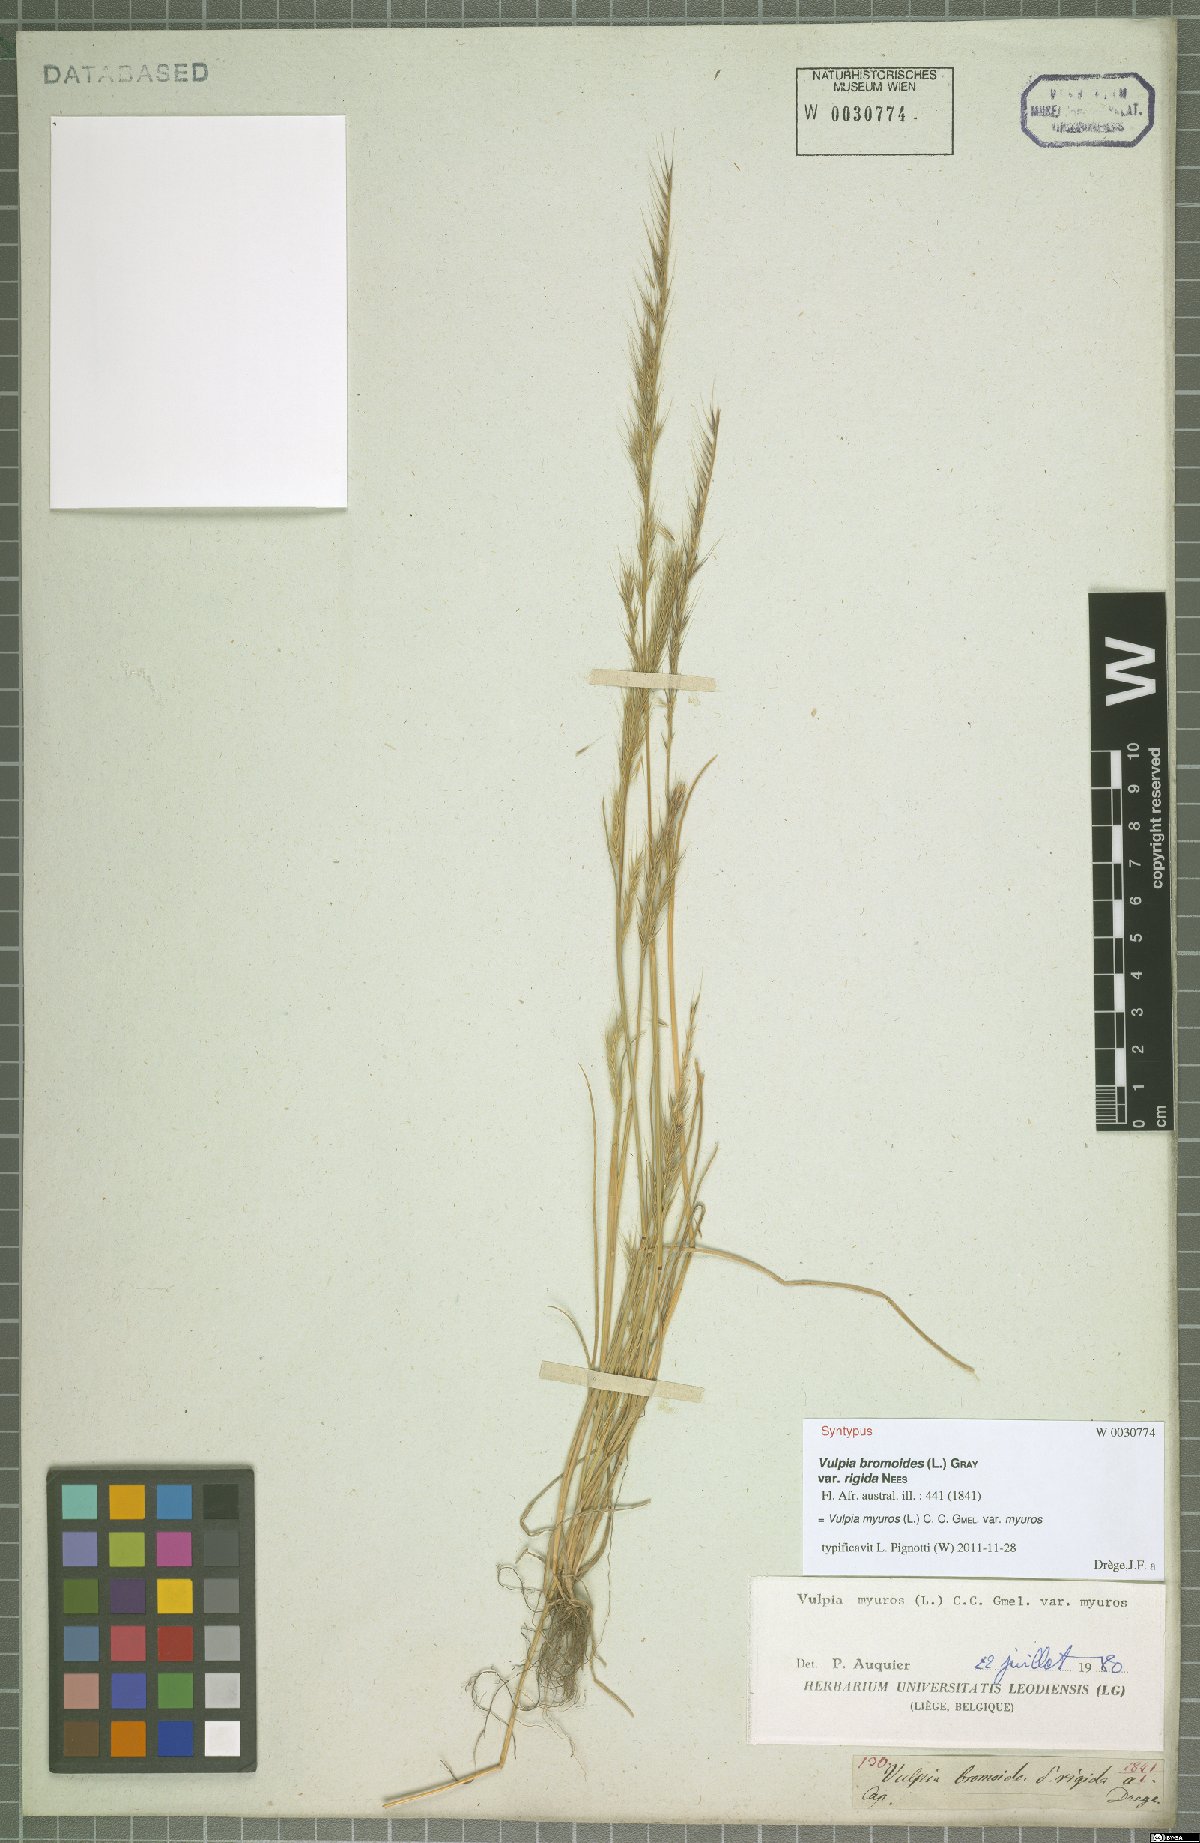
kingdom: Plantae
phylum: Tracheophyta
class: Liliopsida
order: Poales
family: Poaceae
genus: Festuca
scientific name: Festuca myuros
